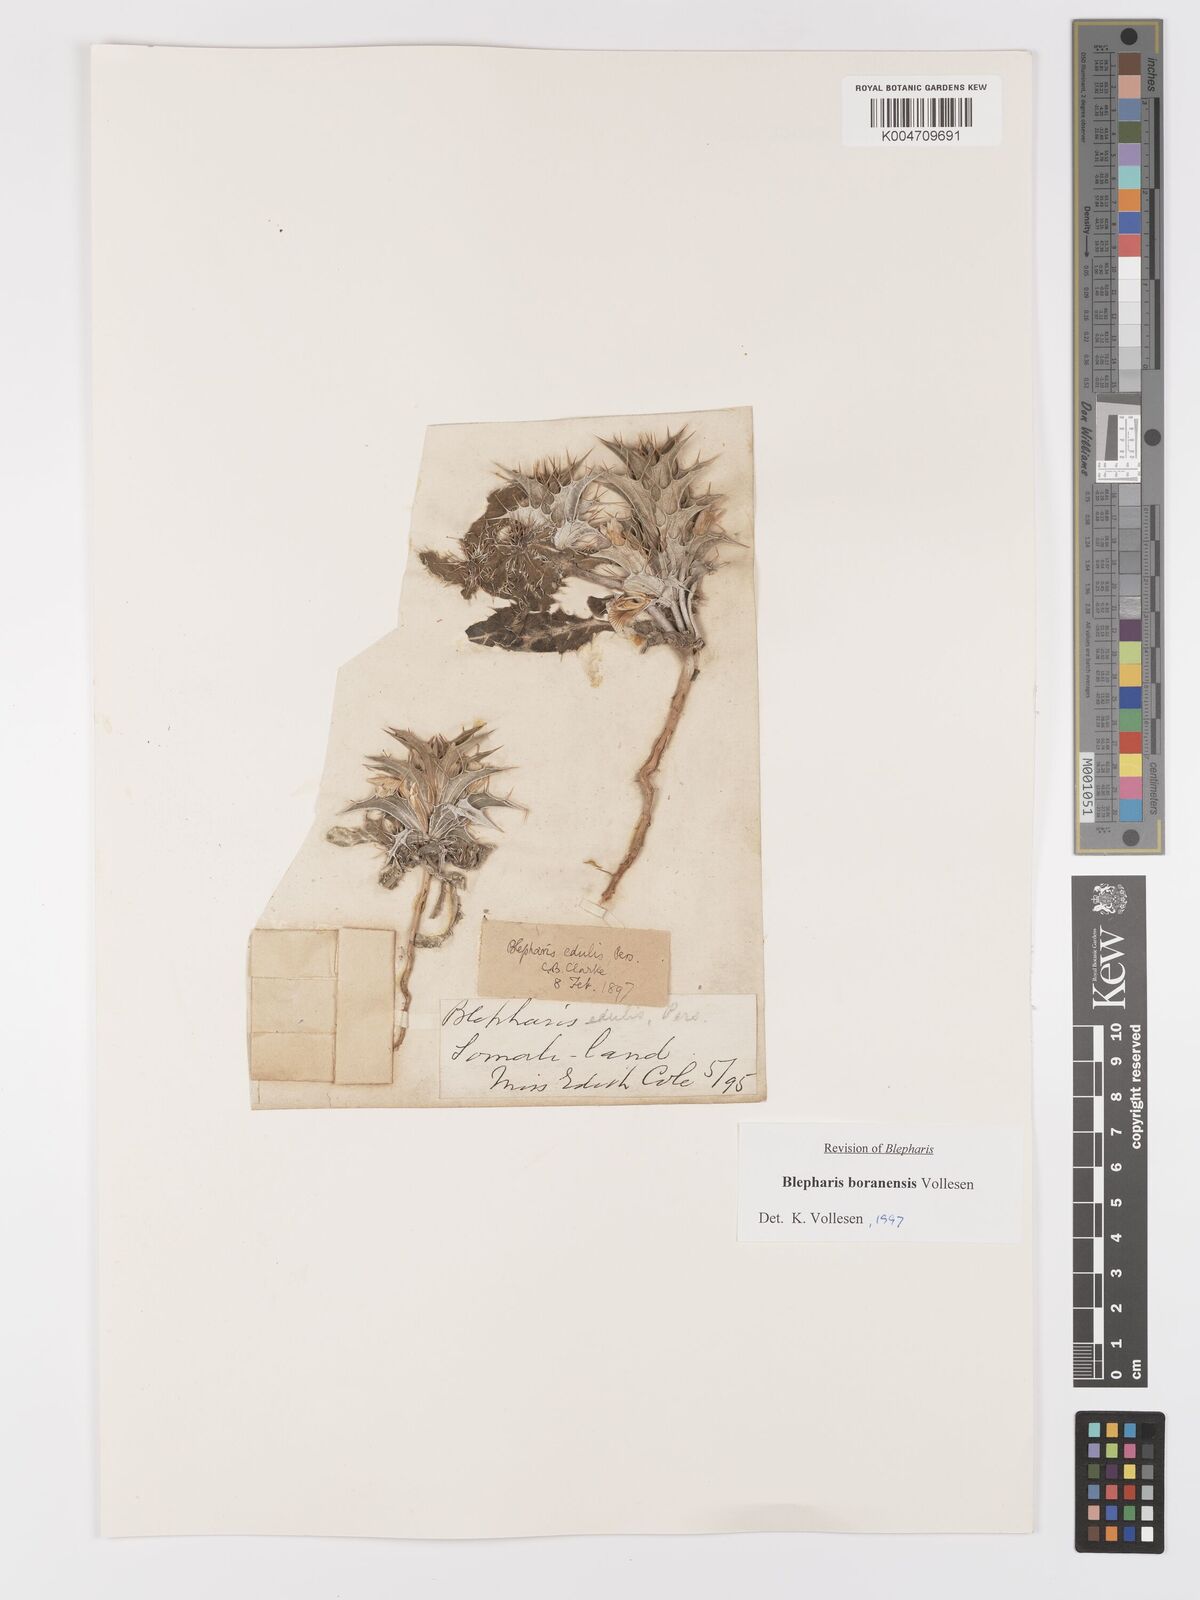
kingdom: Plantae
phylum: Tracheophyta
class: Magnoliopsida
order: Lamiales
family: Acanthaceae
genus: Blepharis
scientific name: Blepharis boranensis
